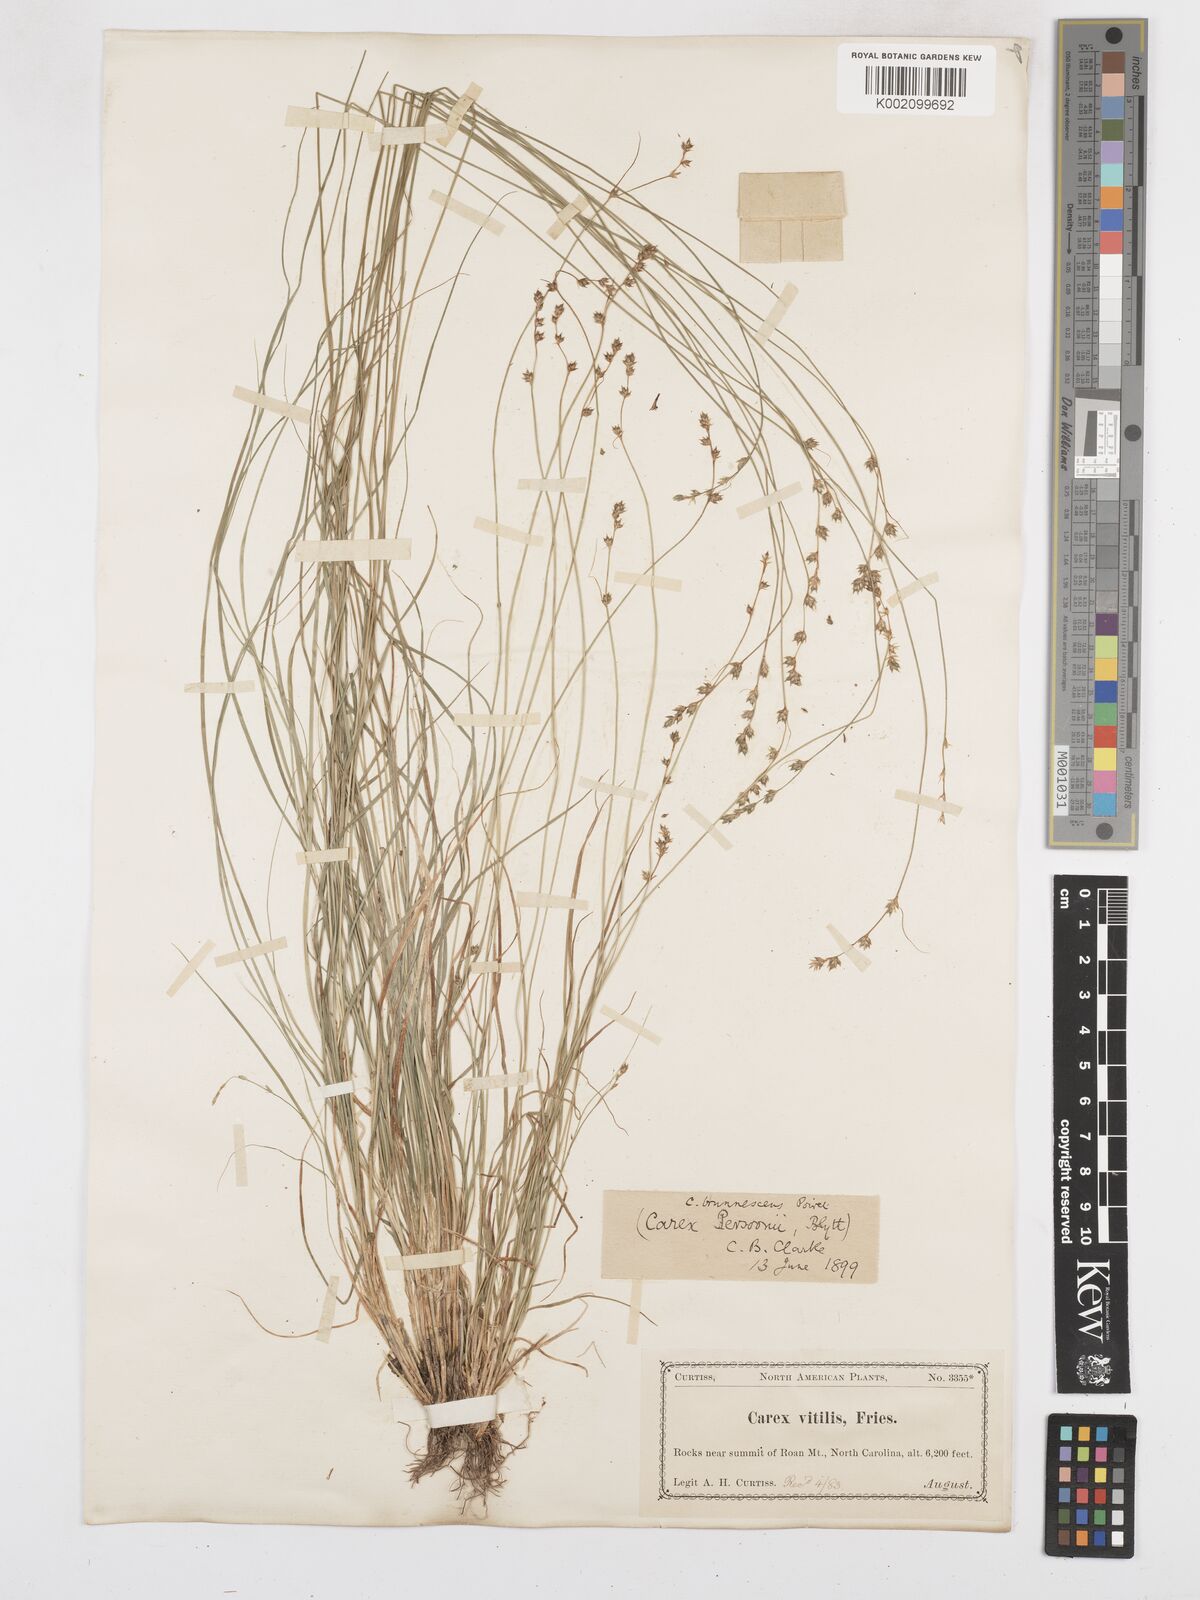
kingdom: Plantae
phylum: Tracheophyta
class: Liliopsida
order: Poales
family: Cyperaceae
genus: Carex
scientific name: Carex brunnescens
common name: Brown sedge
